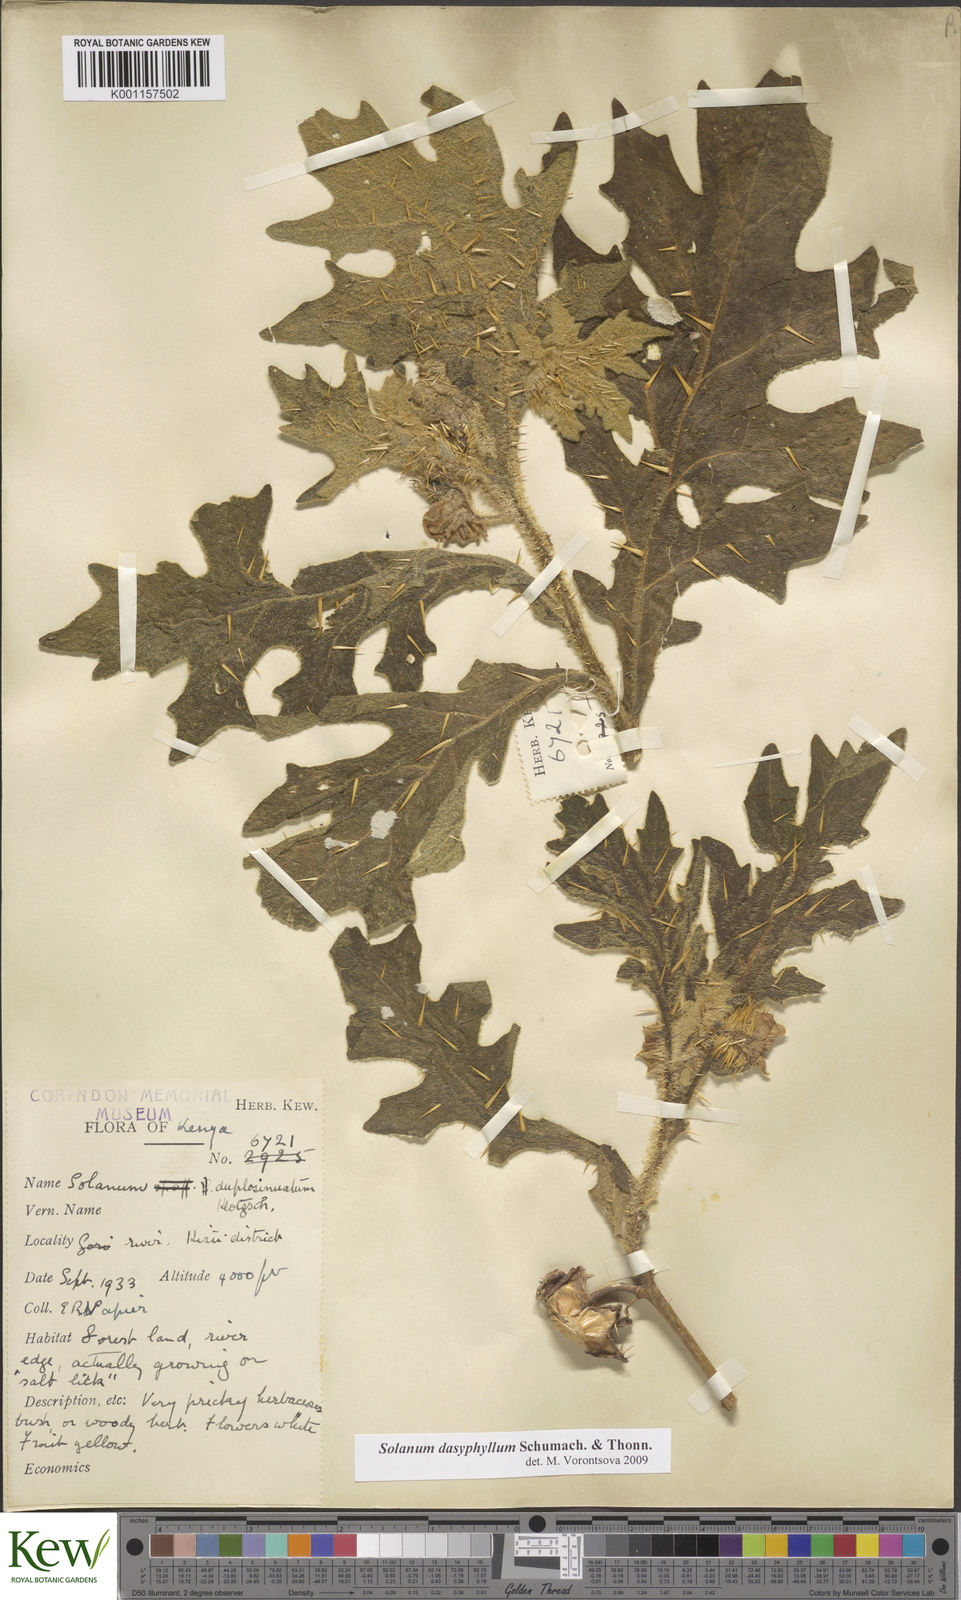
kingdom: Plantae
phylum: Tracheophyta
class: Magnoliopsida
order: Solanales
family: Solanaceae
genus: Solanum
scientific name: Solanum dasyphyllum
